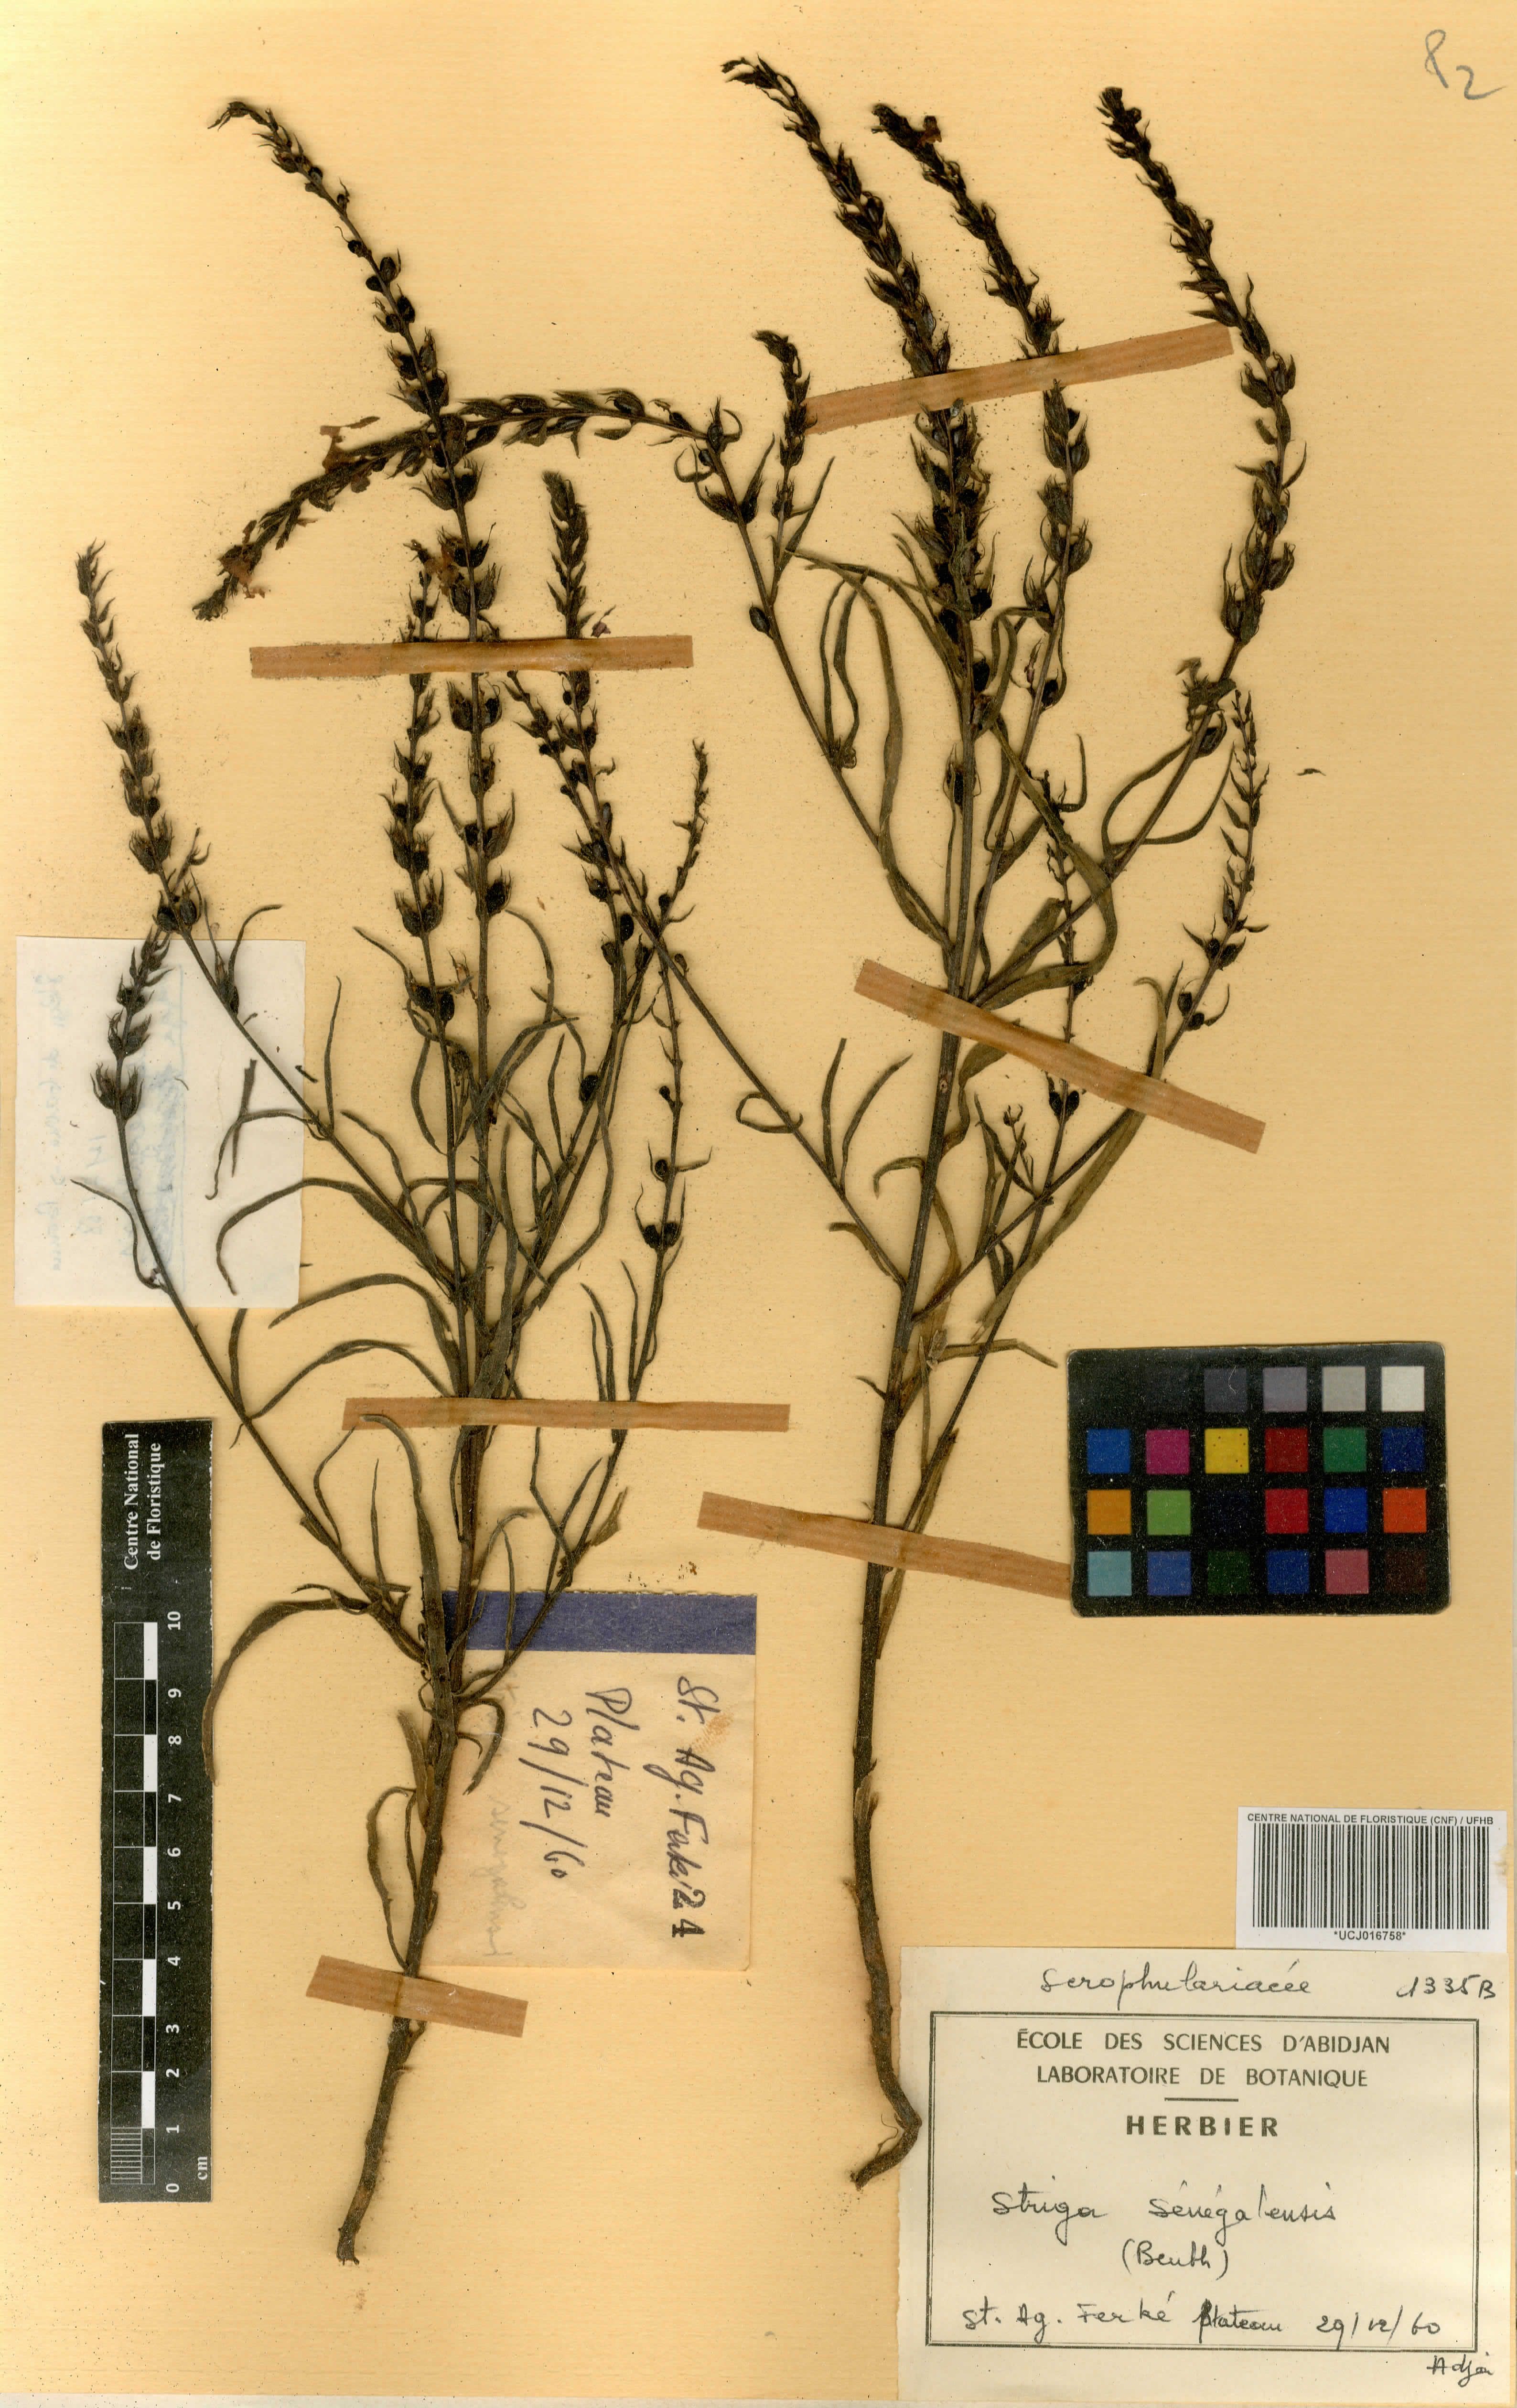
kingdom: Plantae
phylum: Tracheophyta
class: Magnoliopsida
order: Lamiales
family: Orobanchaceae
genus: Striga
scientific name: Striga hermonthica
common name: Purple witchweed
